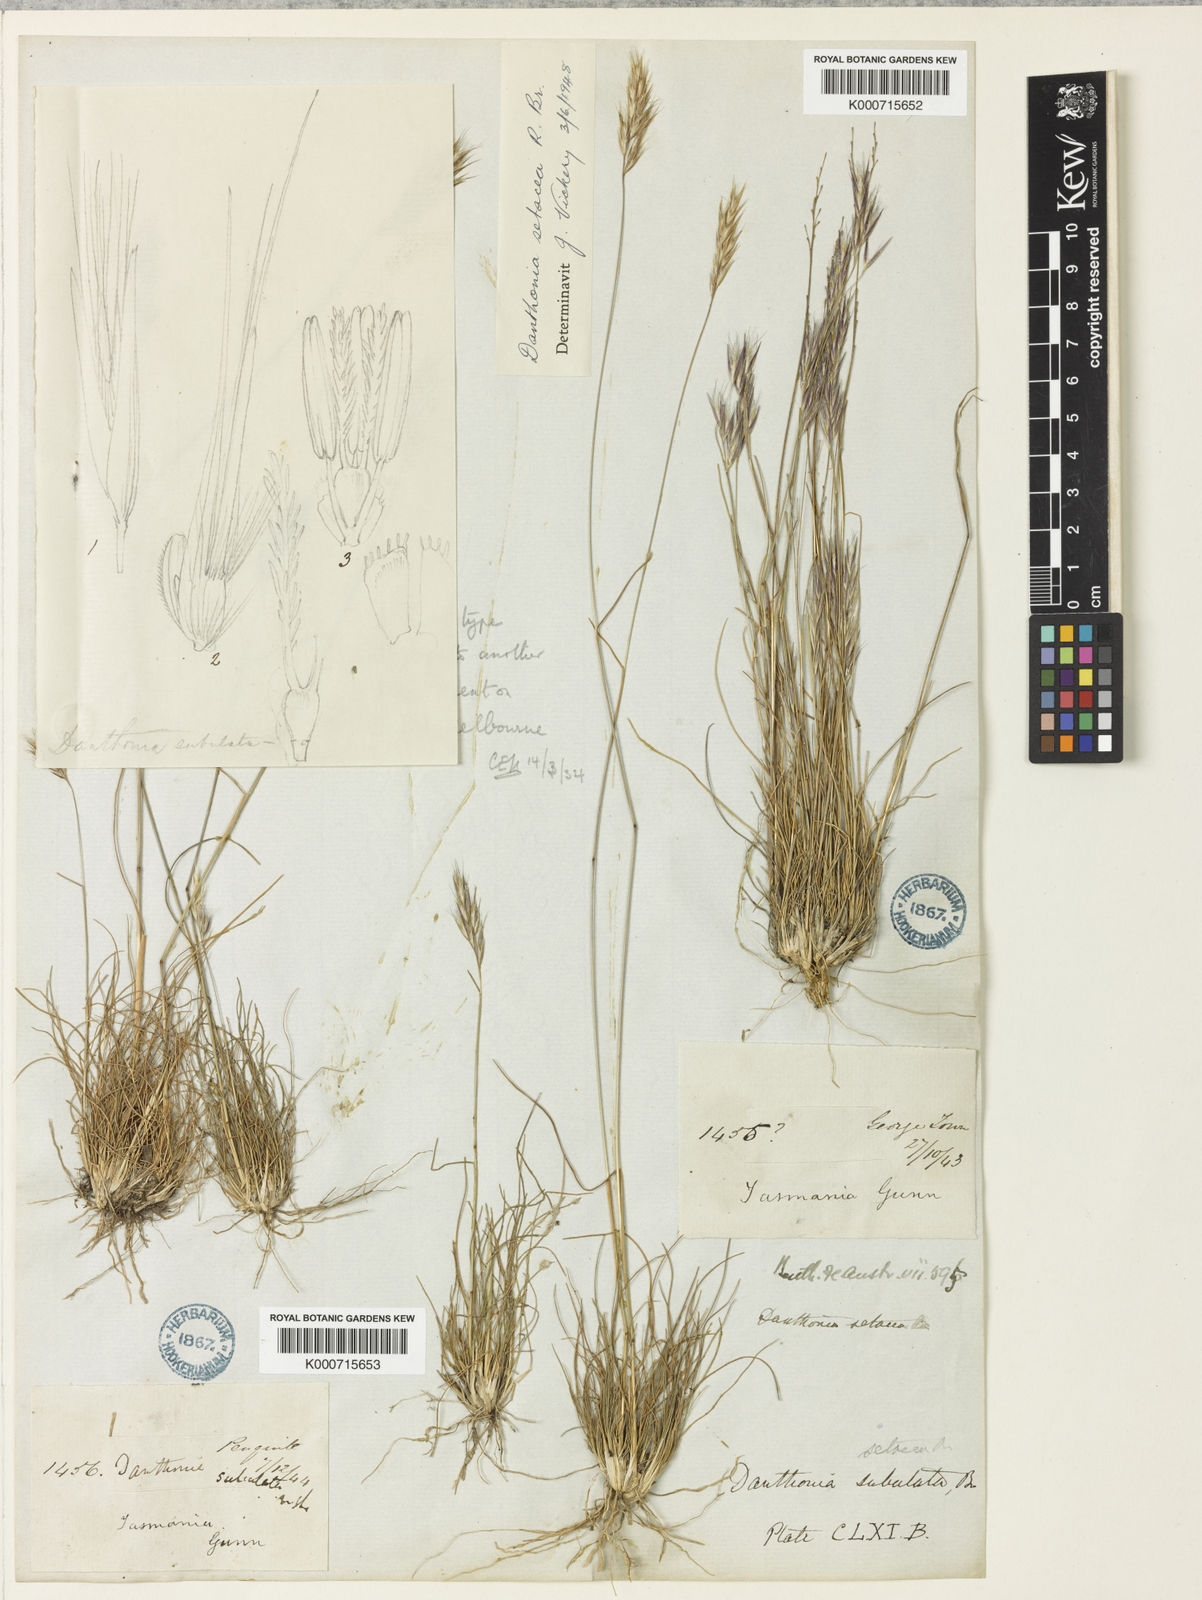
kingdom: Plantae
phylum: Tracheophyta
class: Liliopsida
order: Poales
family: Poaceae
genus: Rytidosperma
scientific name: Rytidosperma setaceum
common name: Small-flower wallaby grass
